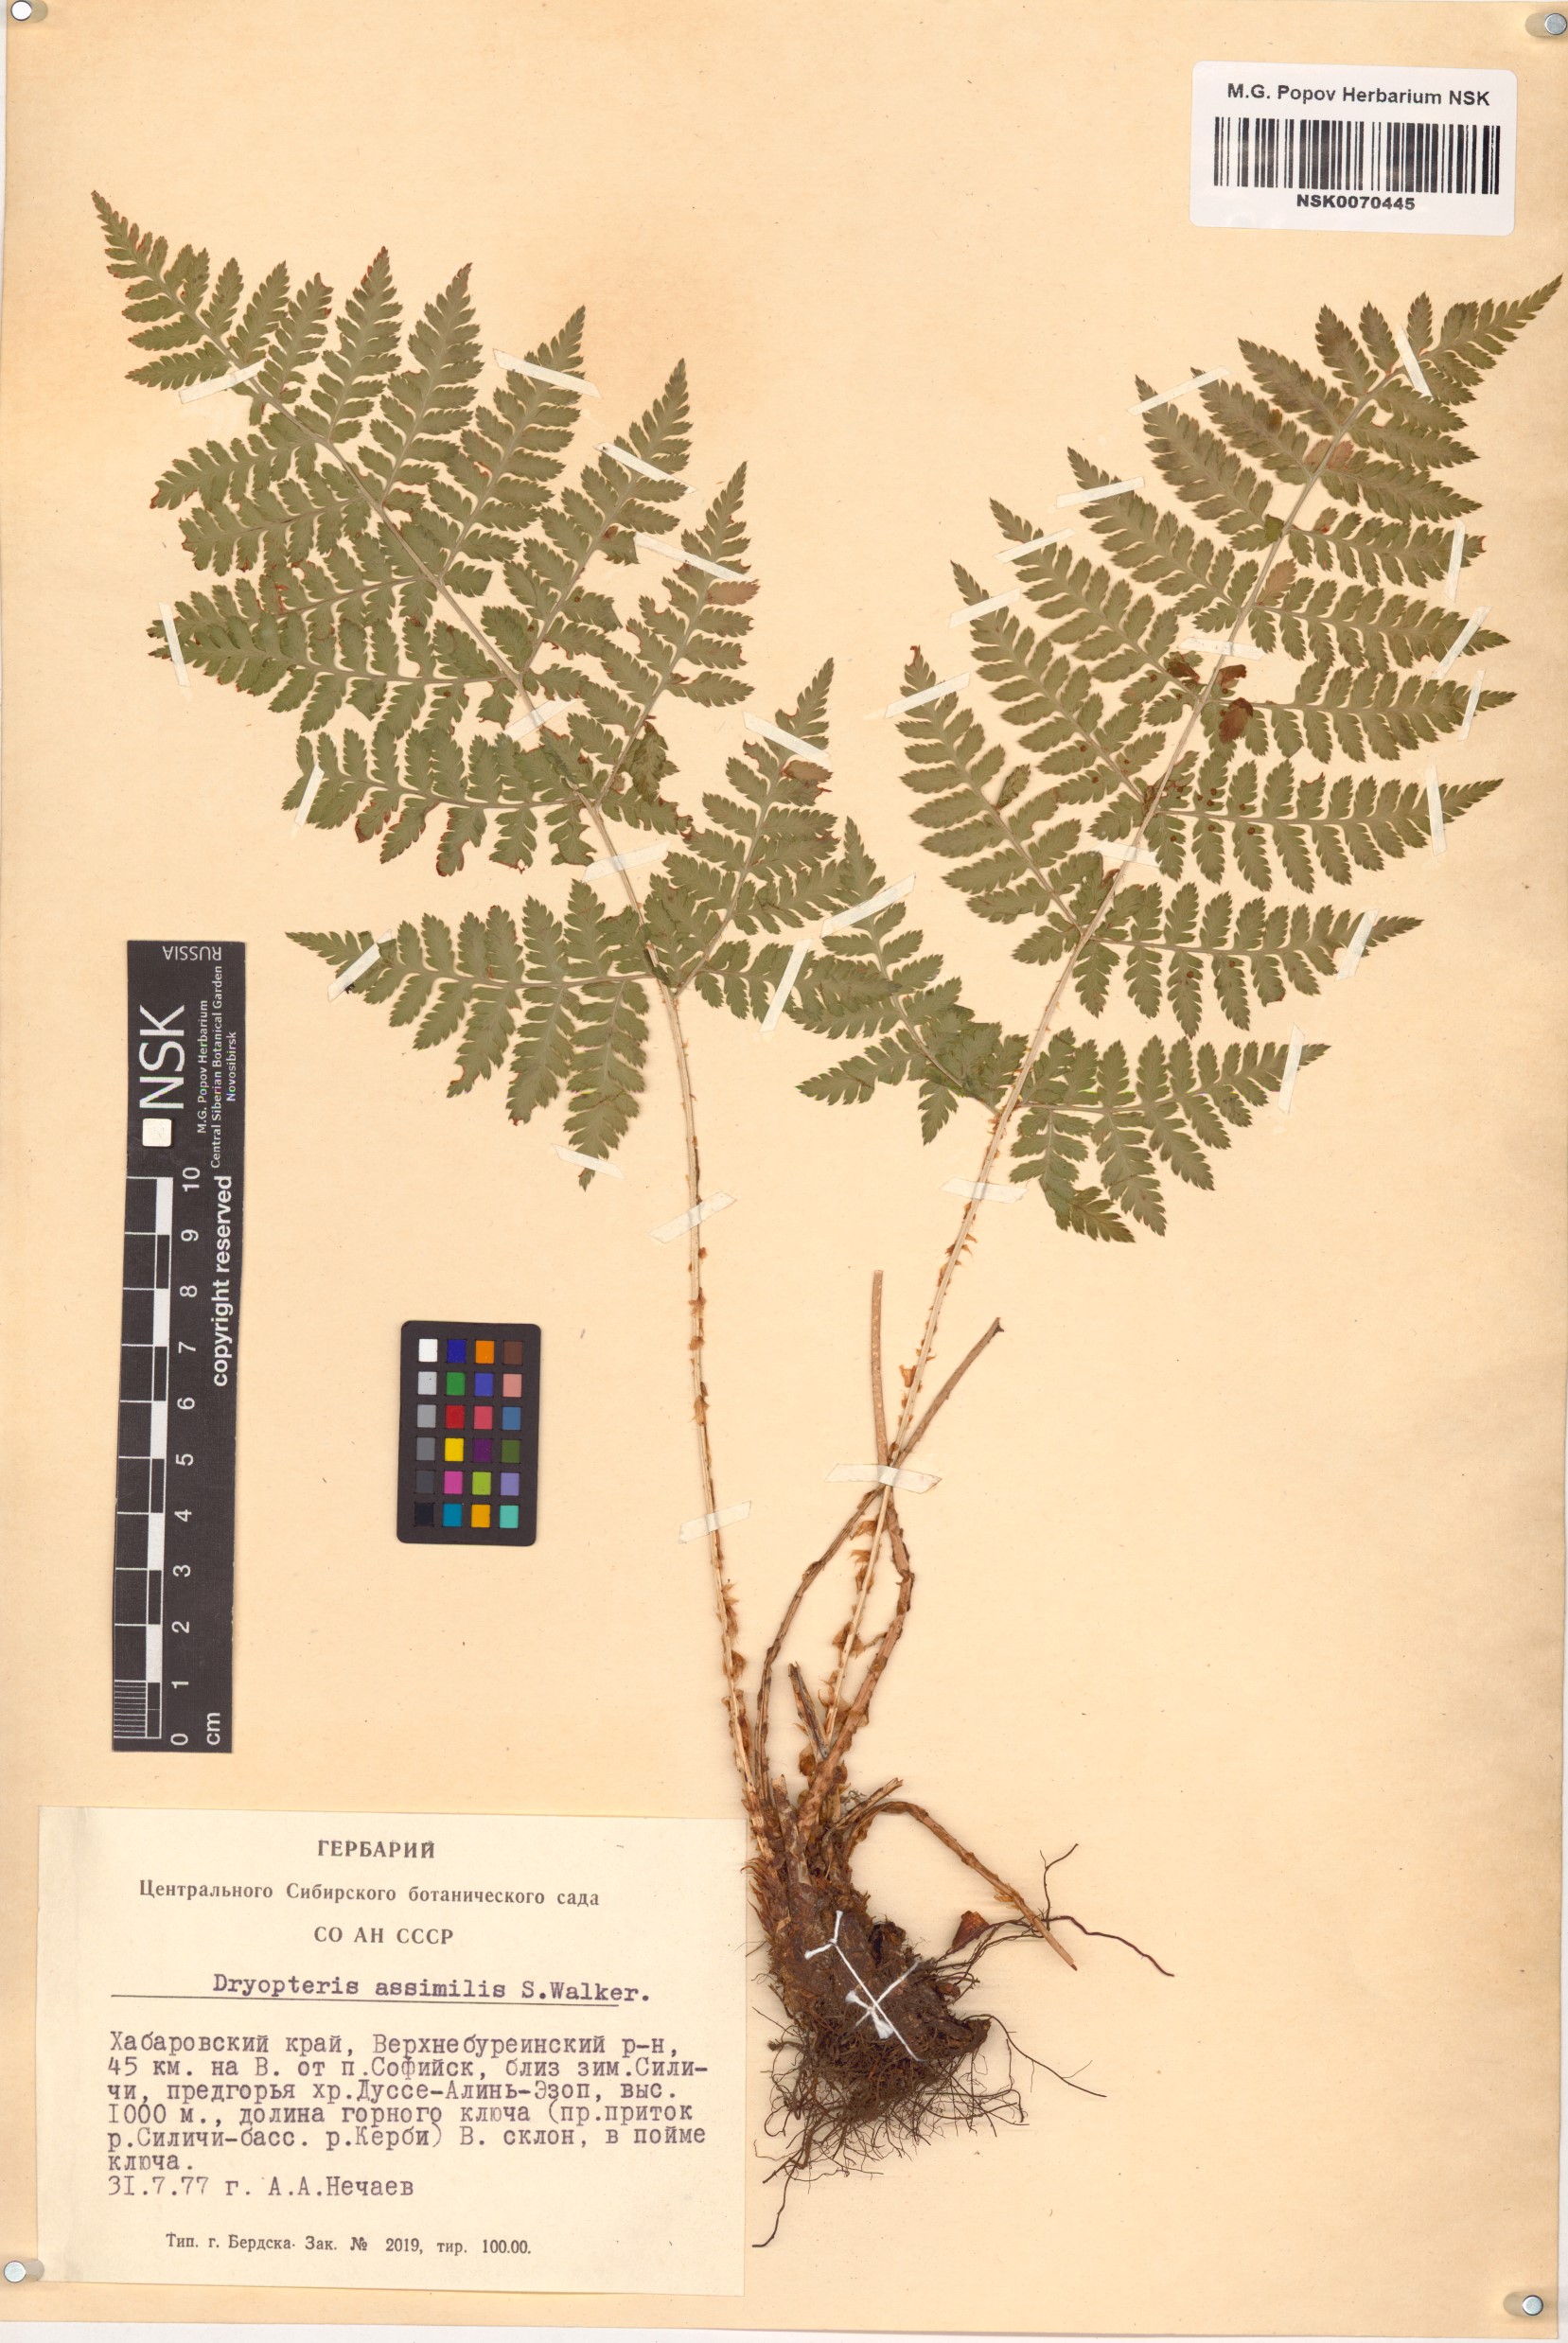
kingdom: Plantae
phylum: Tracheophyta
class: Polypodiopsida
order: Polypodiales
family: Dryopteridaceae
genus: Dryopteris
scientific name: Dryopteris expansa
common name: Northern buckler fern
